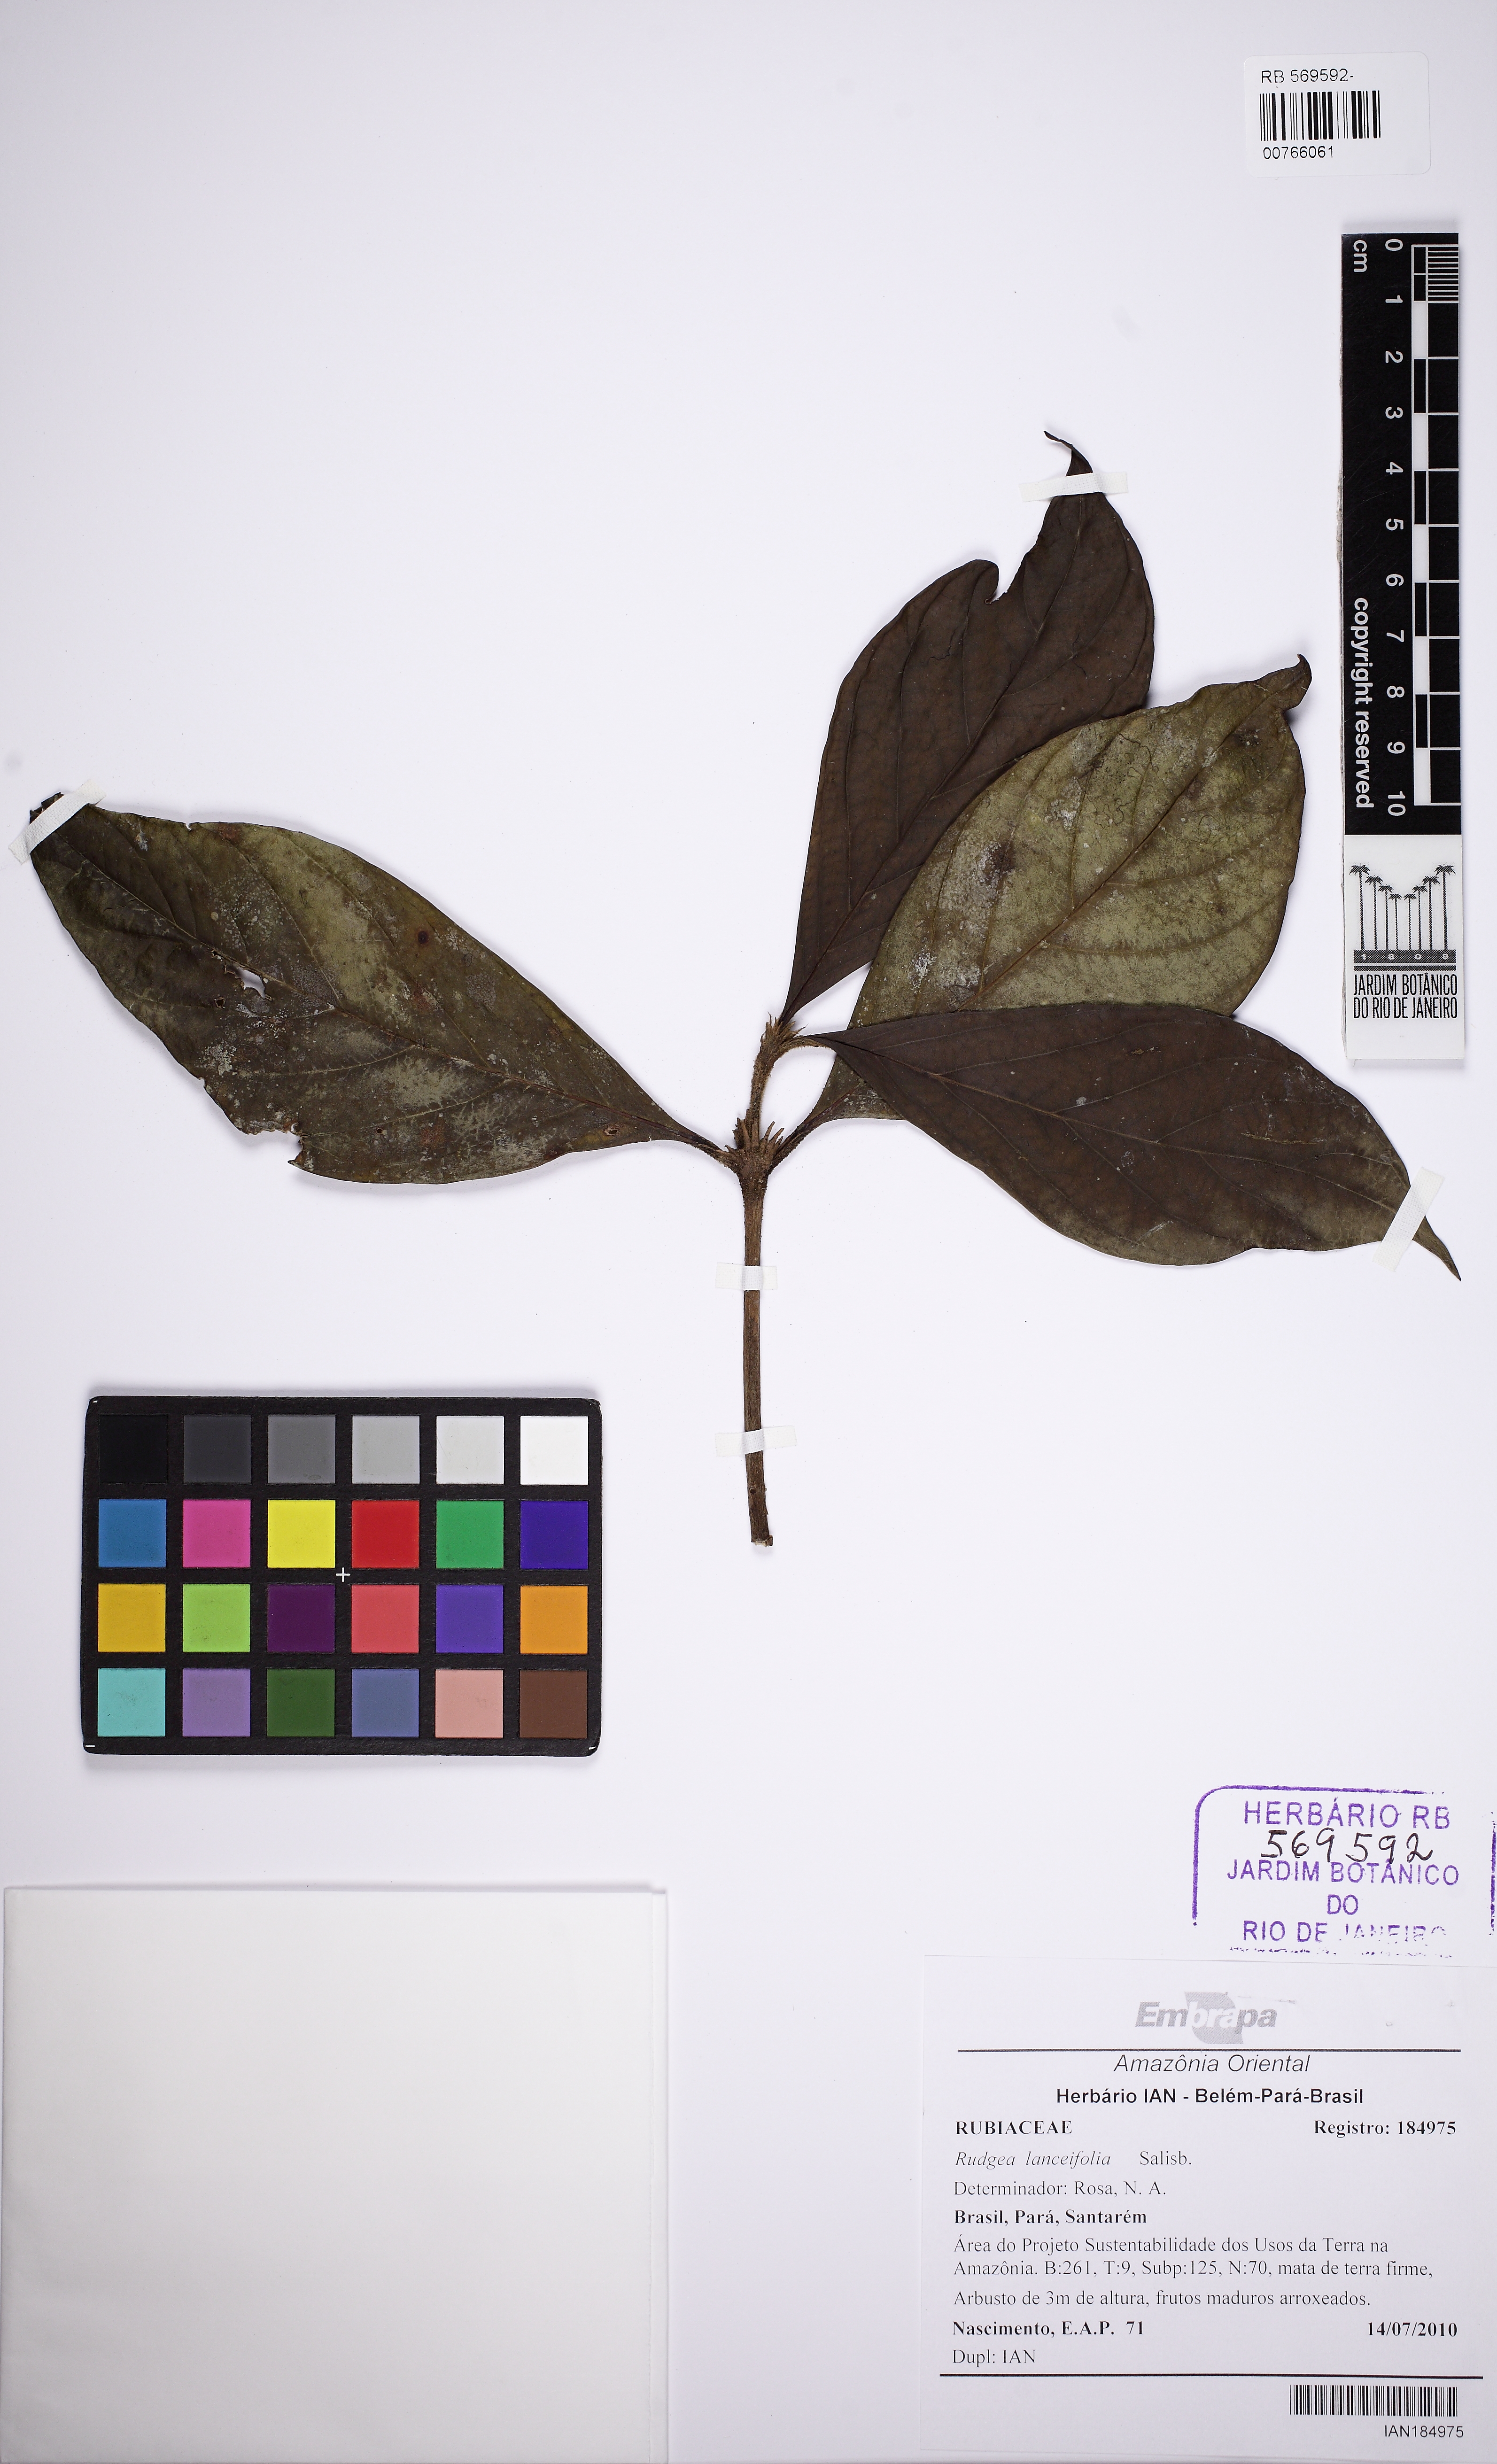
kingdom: Plantae
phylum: Tracheophyta
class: Magnoliopsida
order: Gentianales
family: Rubiaceae
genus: Rudgea
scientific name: Rudgea lanceifolia
